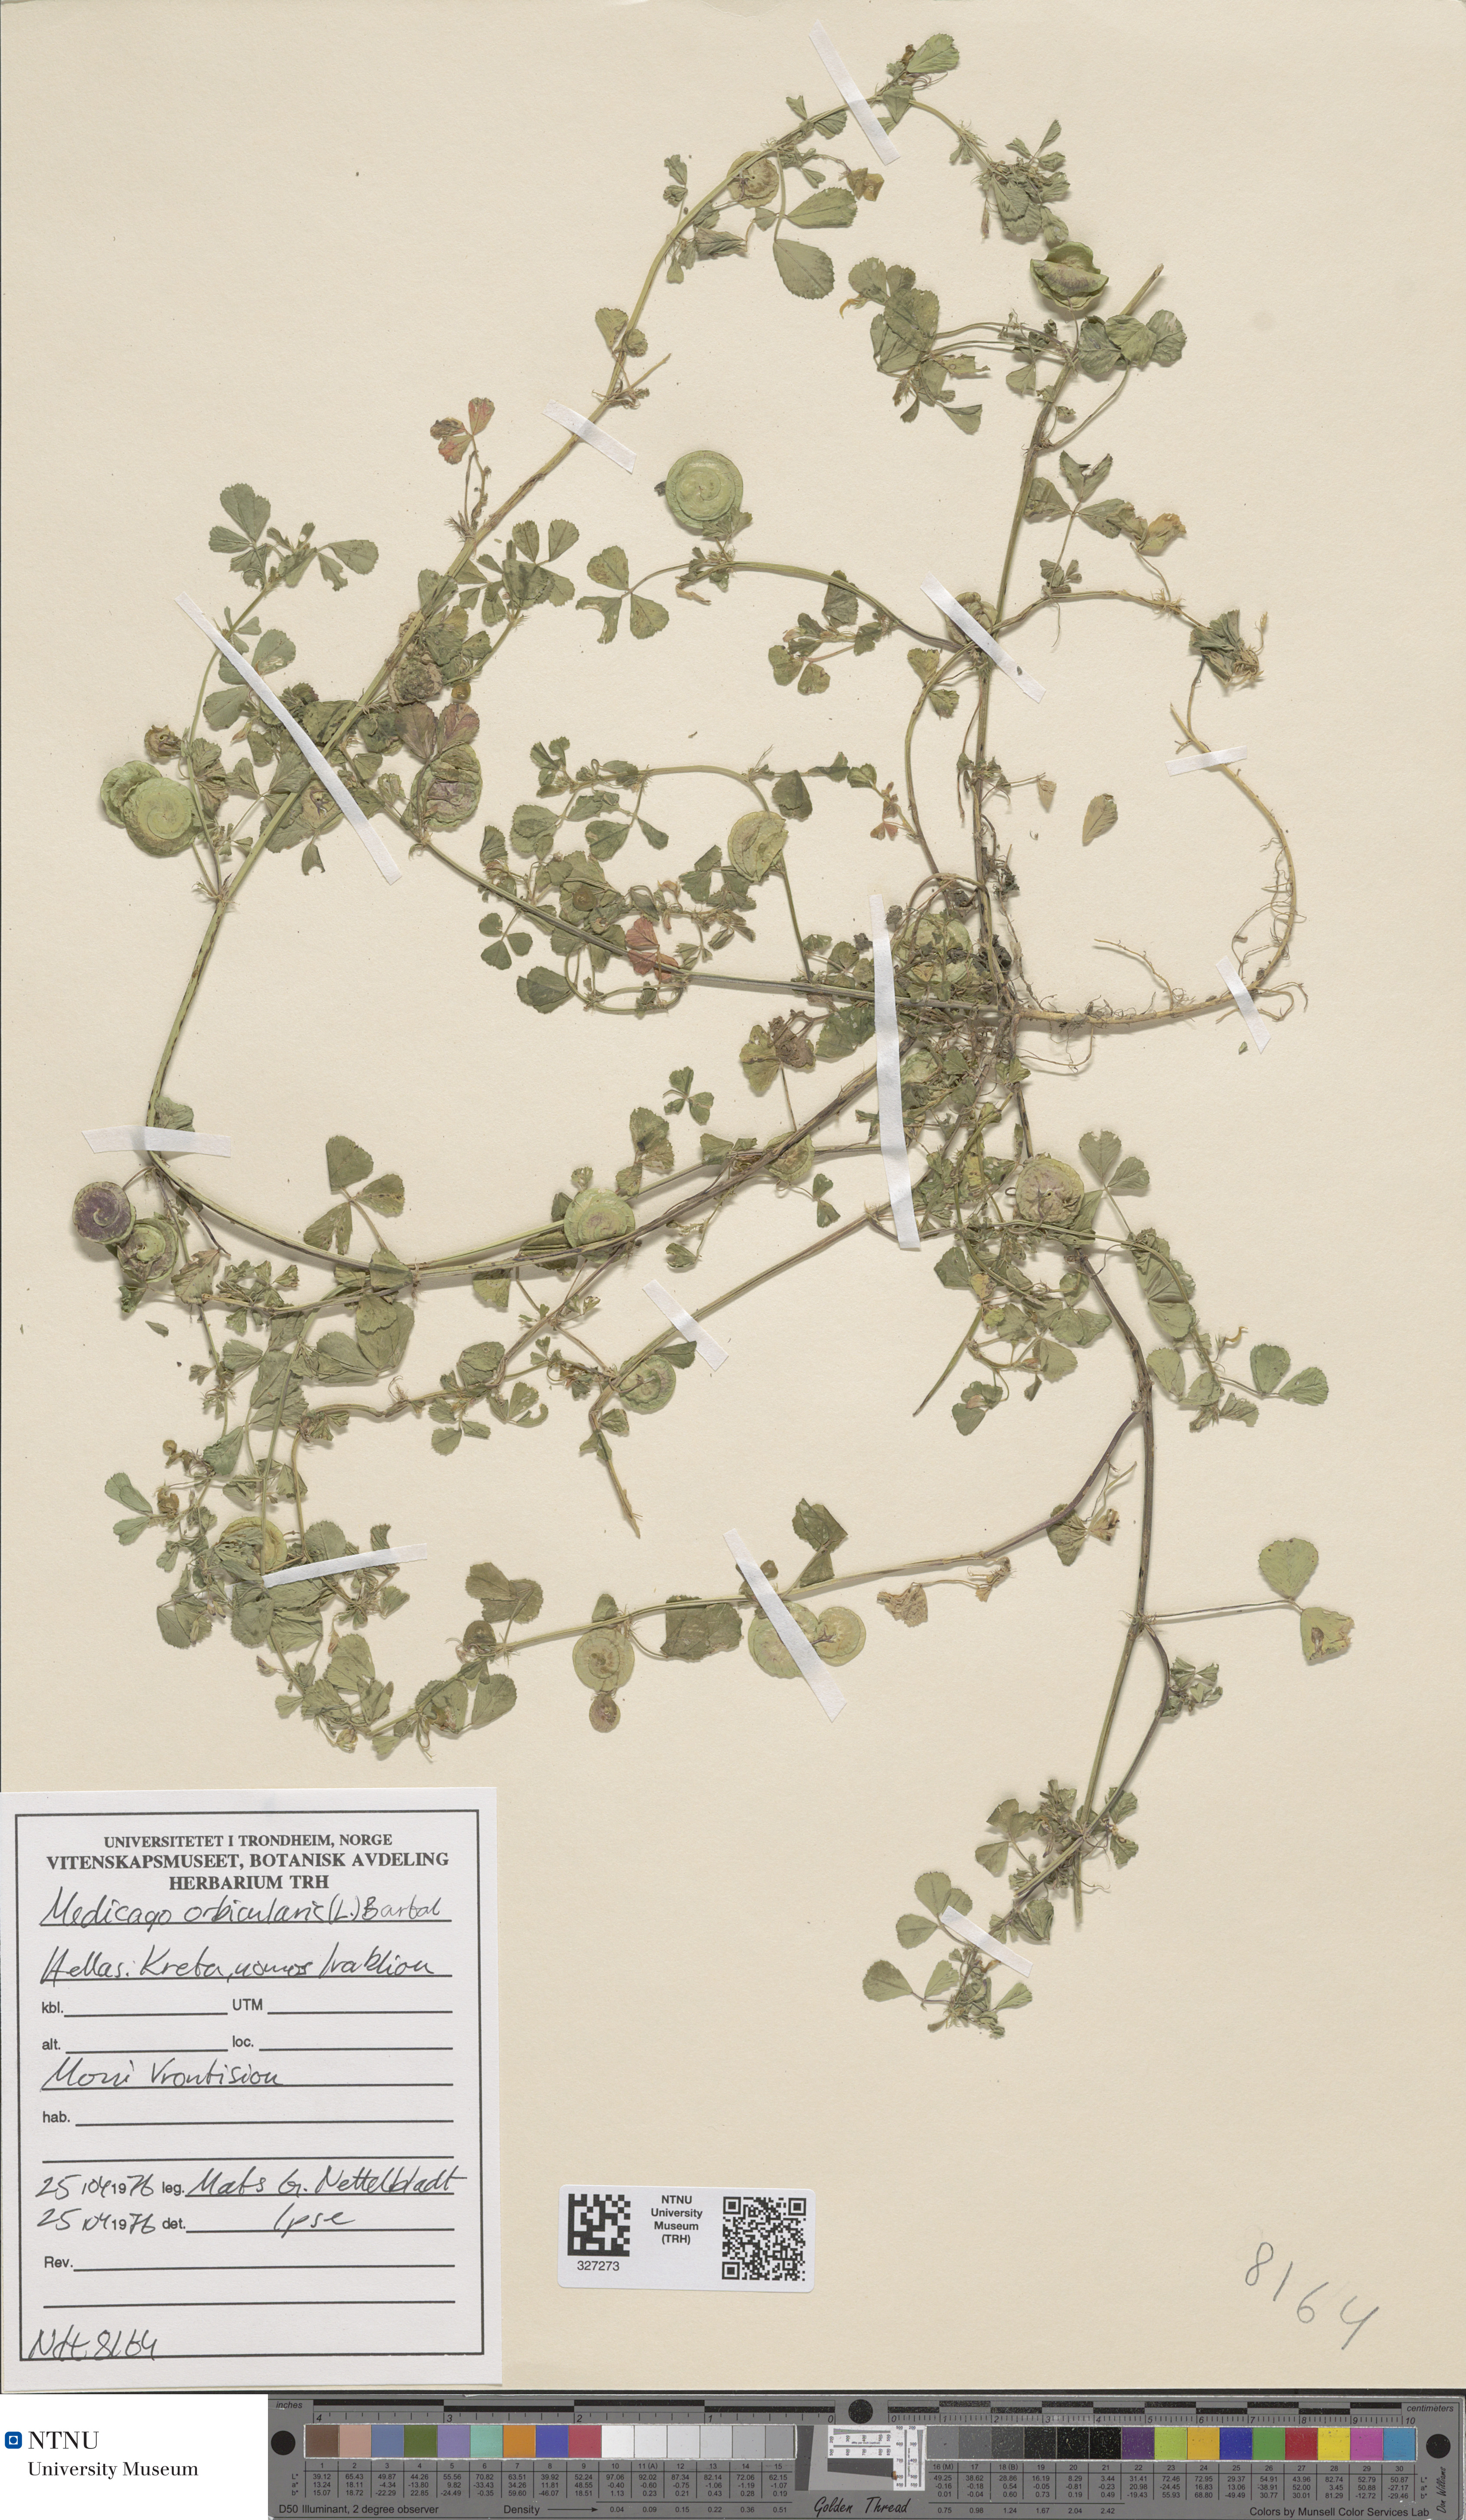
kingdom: Plantae
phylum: Tracheophyta
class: Magnoliopsida
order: Fabales
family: Fabaceae
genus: Medicago
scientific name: Medicago orbicularis
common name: Button medick
